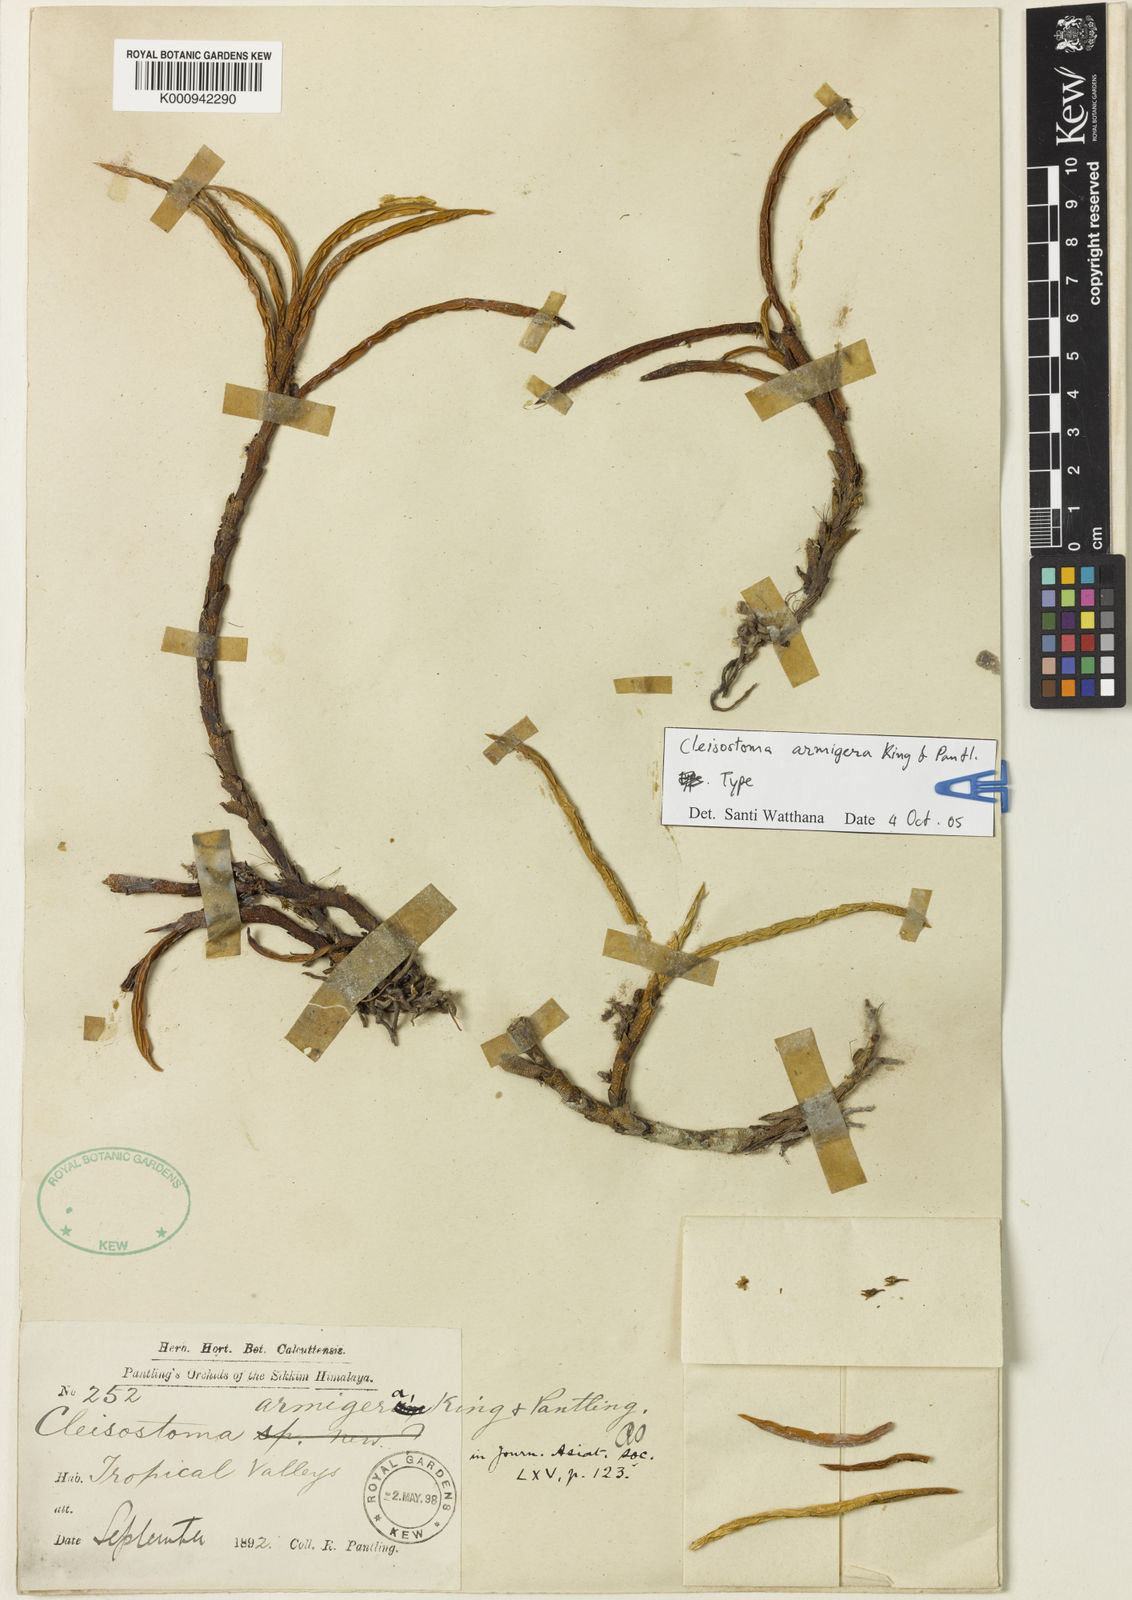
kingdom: Plantae
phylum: Tracheophyta
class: Liliopsida
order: Asparagales
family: Orchidaceae
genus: Pomatocalpa
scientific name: Pomatocalpa armigerum
